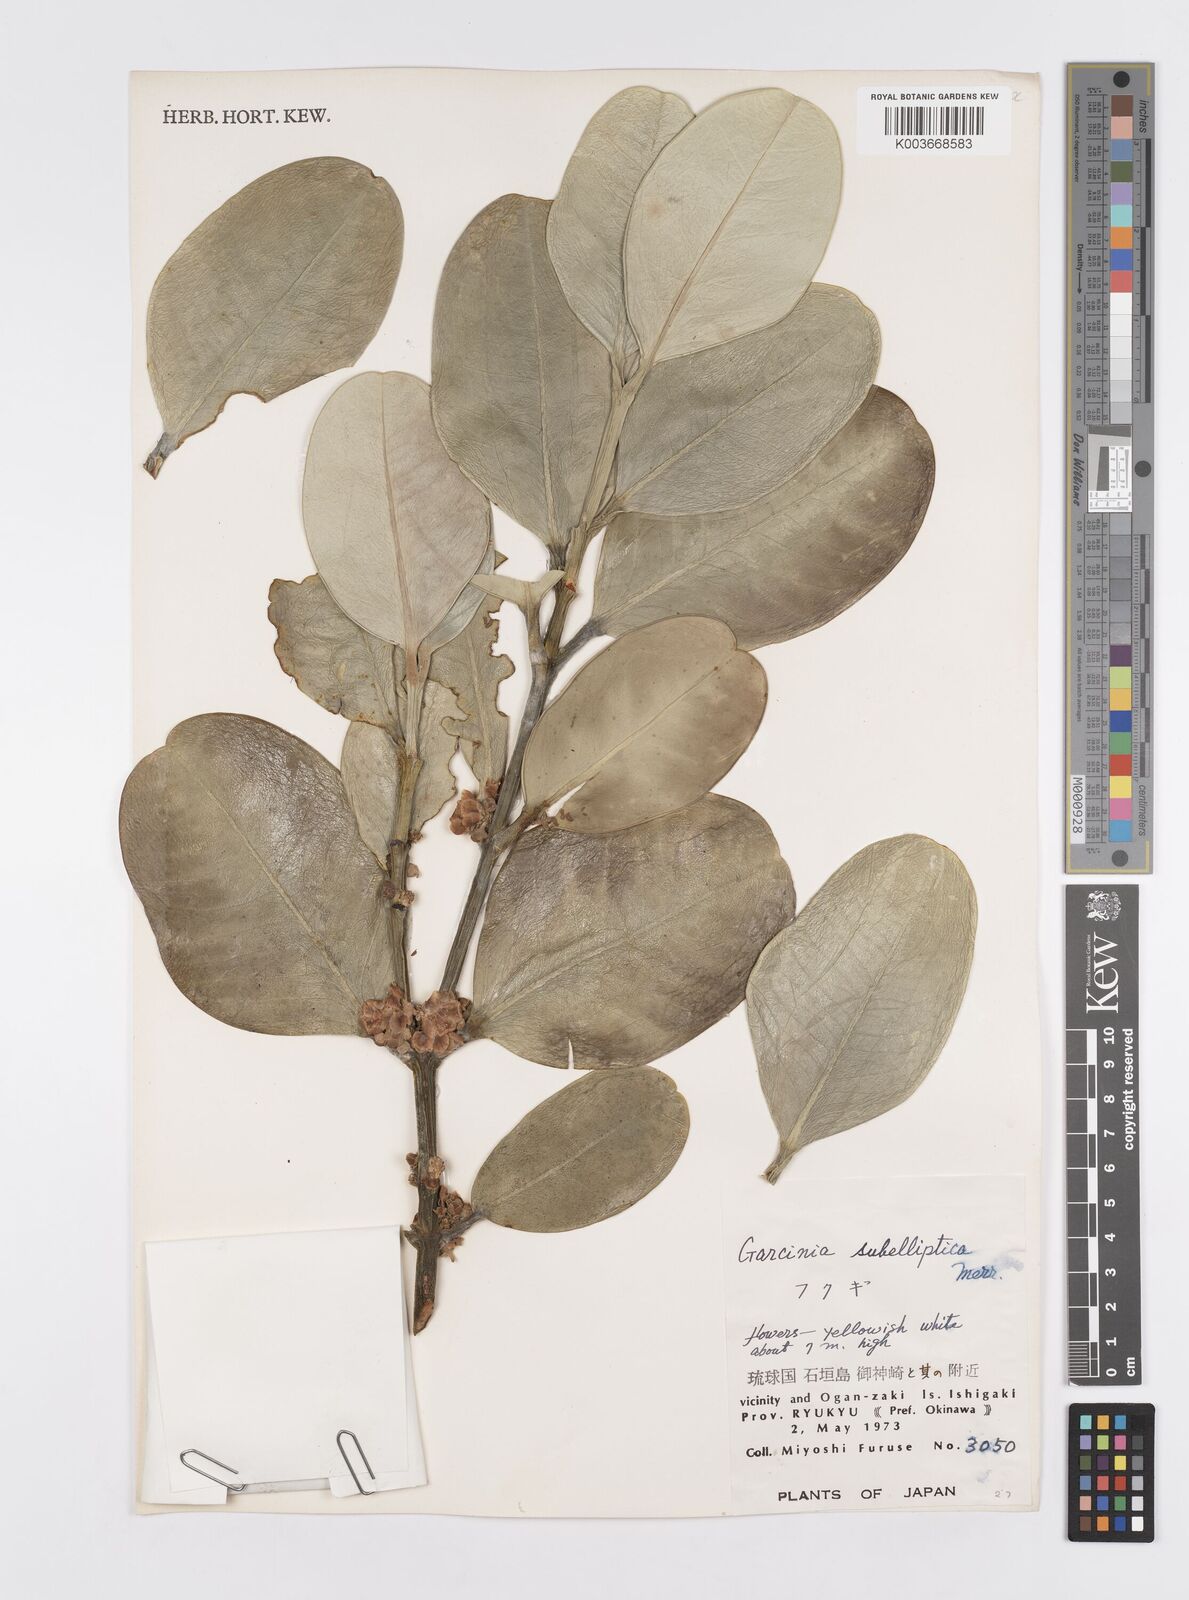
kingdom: Plantae
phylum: Tracheophyta
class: Magnoliopsida
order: Malpighiales
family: Clusiaceae
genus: Garcinia
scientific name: Garcinia subelliptica
